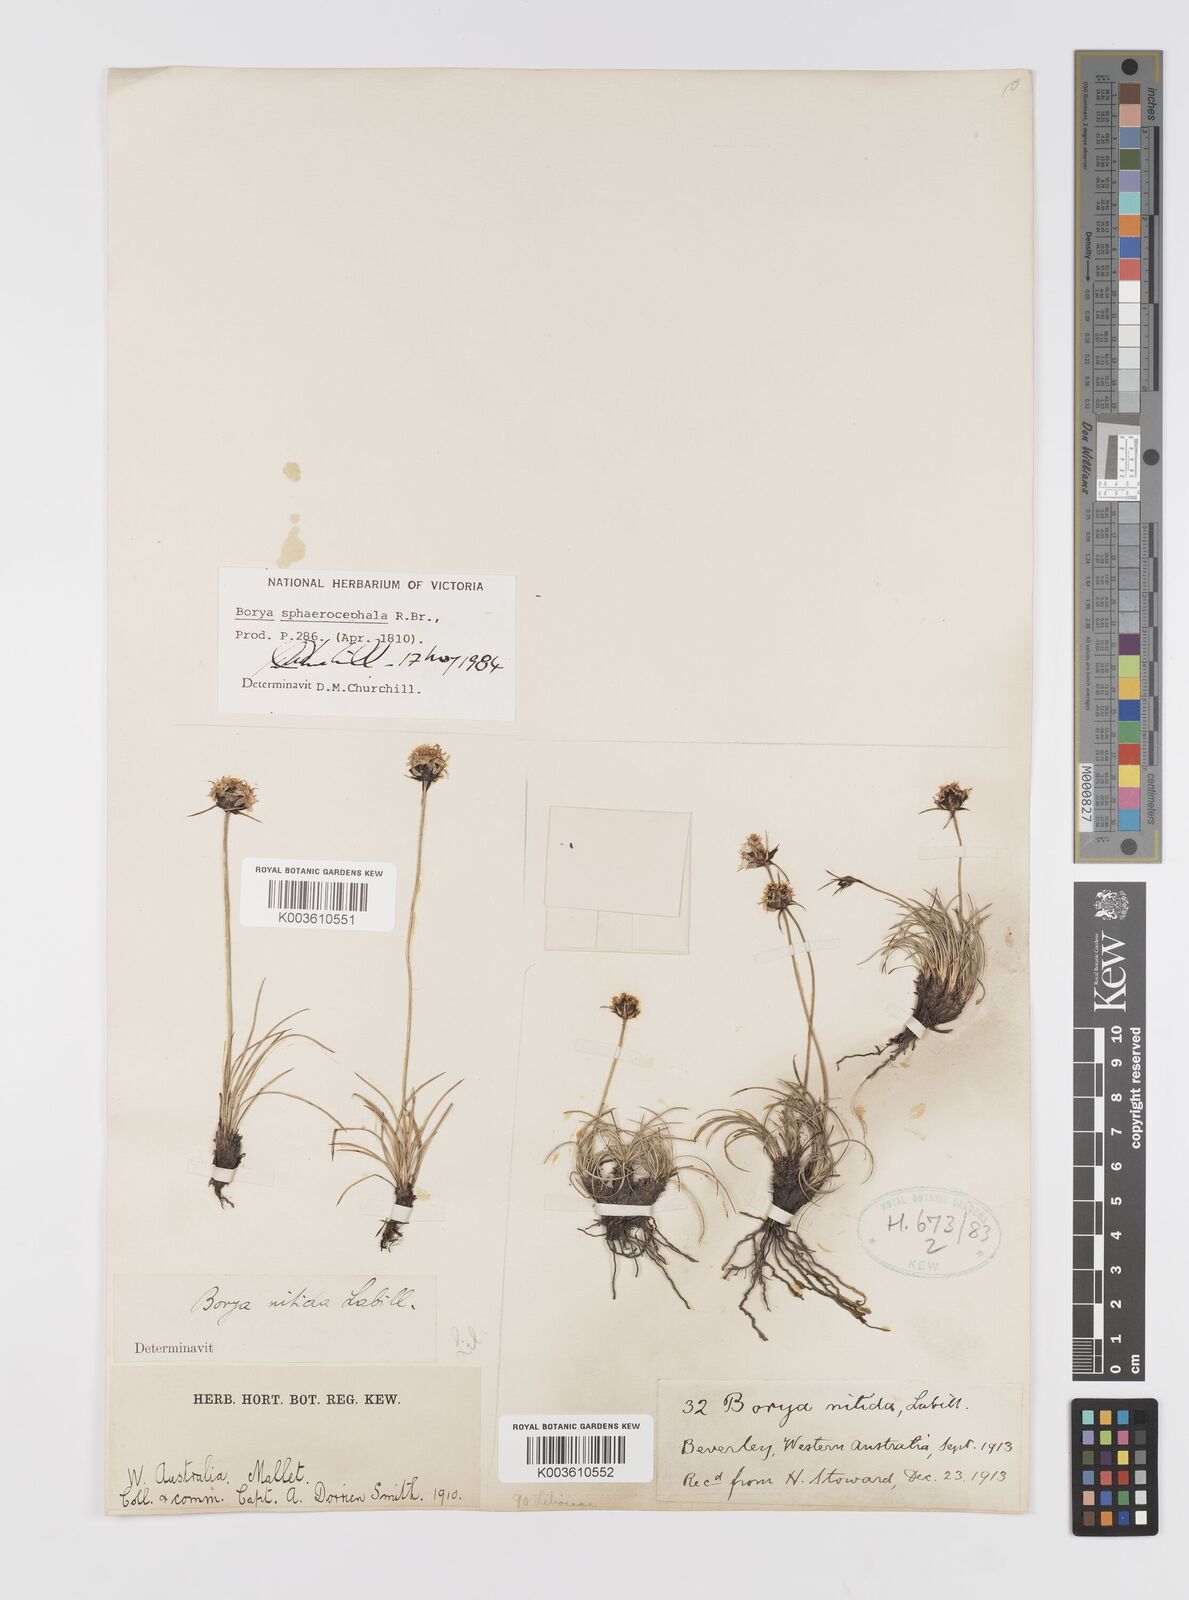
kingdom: Plantae
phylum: Tracheophyta
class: Liliopsida
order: Asparagales
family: Boryaceae
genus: Borya
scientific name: Borya sphaerocephala
